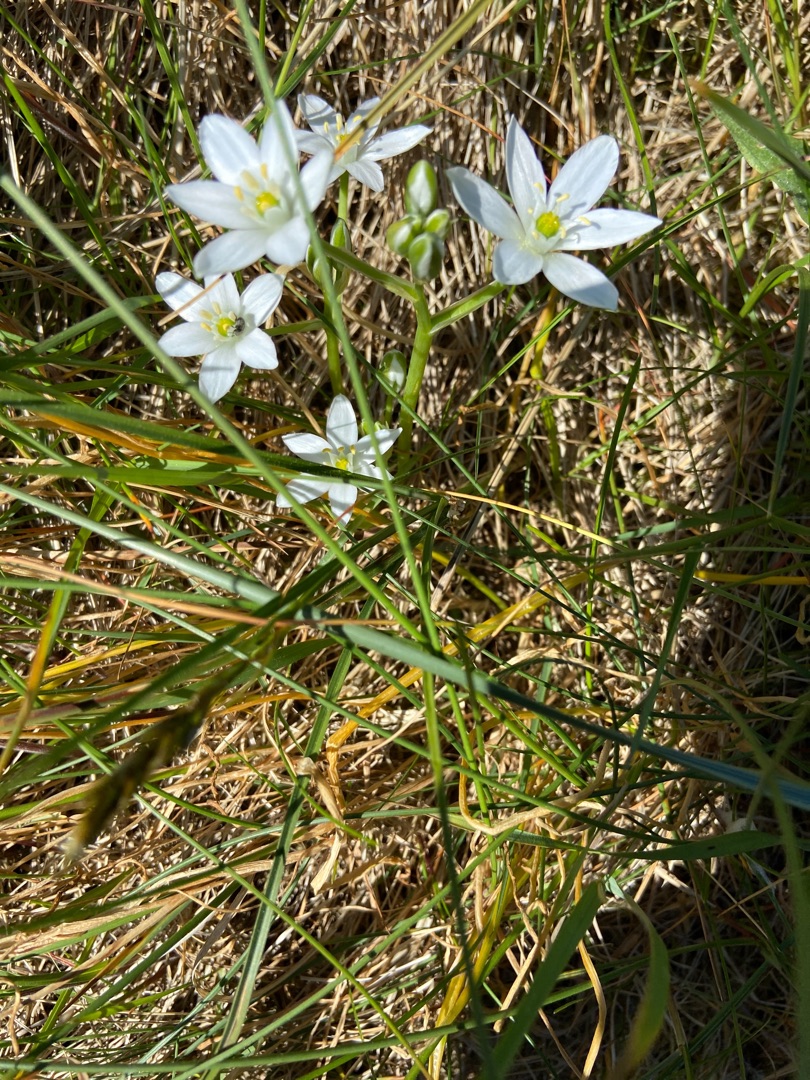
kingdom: Plantae
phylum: Tracheophyta
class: Liliopsida
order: Asparagales
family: Asparagaceae
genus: Ornithogalum
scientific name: Ornithogalum umbellatum
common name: Kost-fuglemælk
